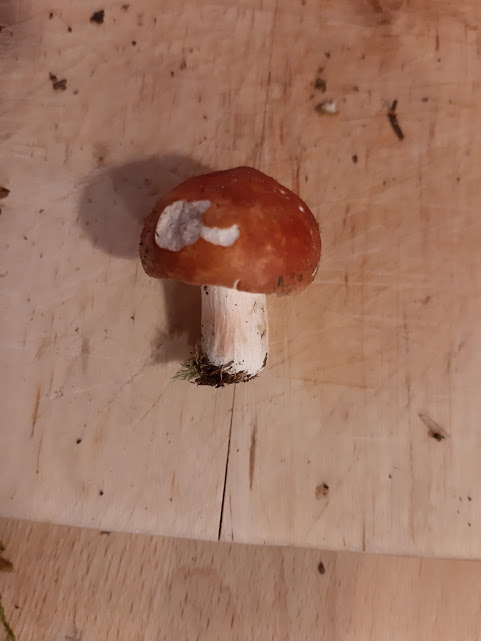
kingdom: Fungi
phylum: Basidiomycota
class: Agaricomycetes
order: Russulales
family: Russulaceae
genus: Russula
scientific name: Russula
